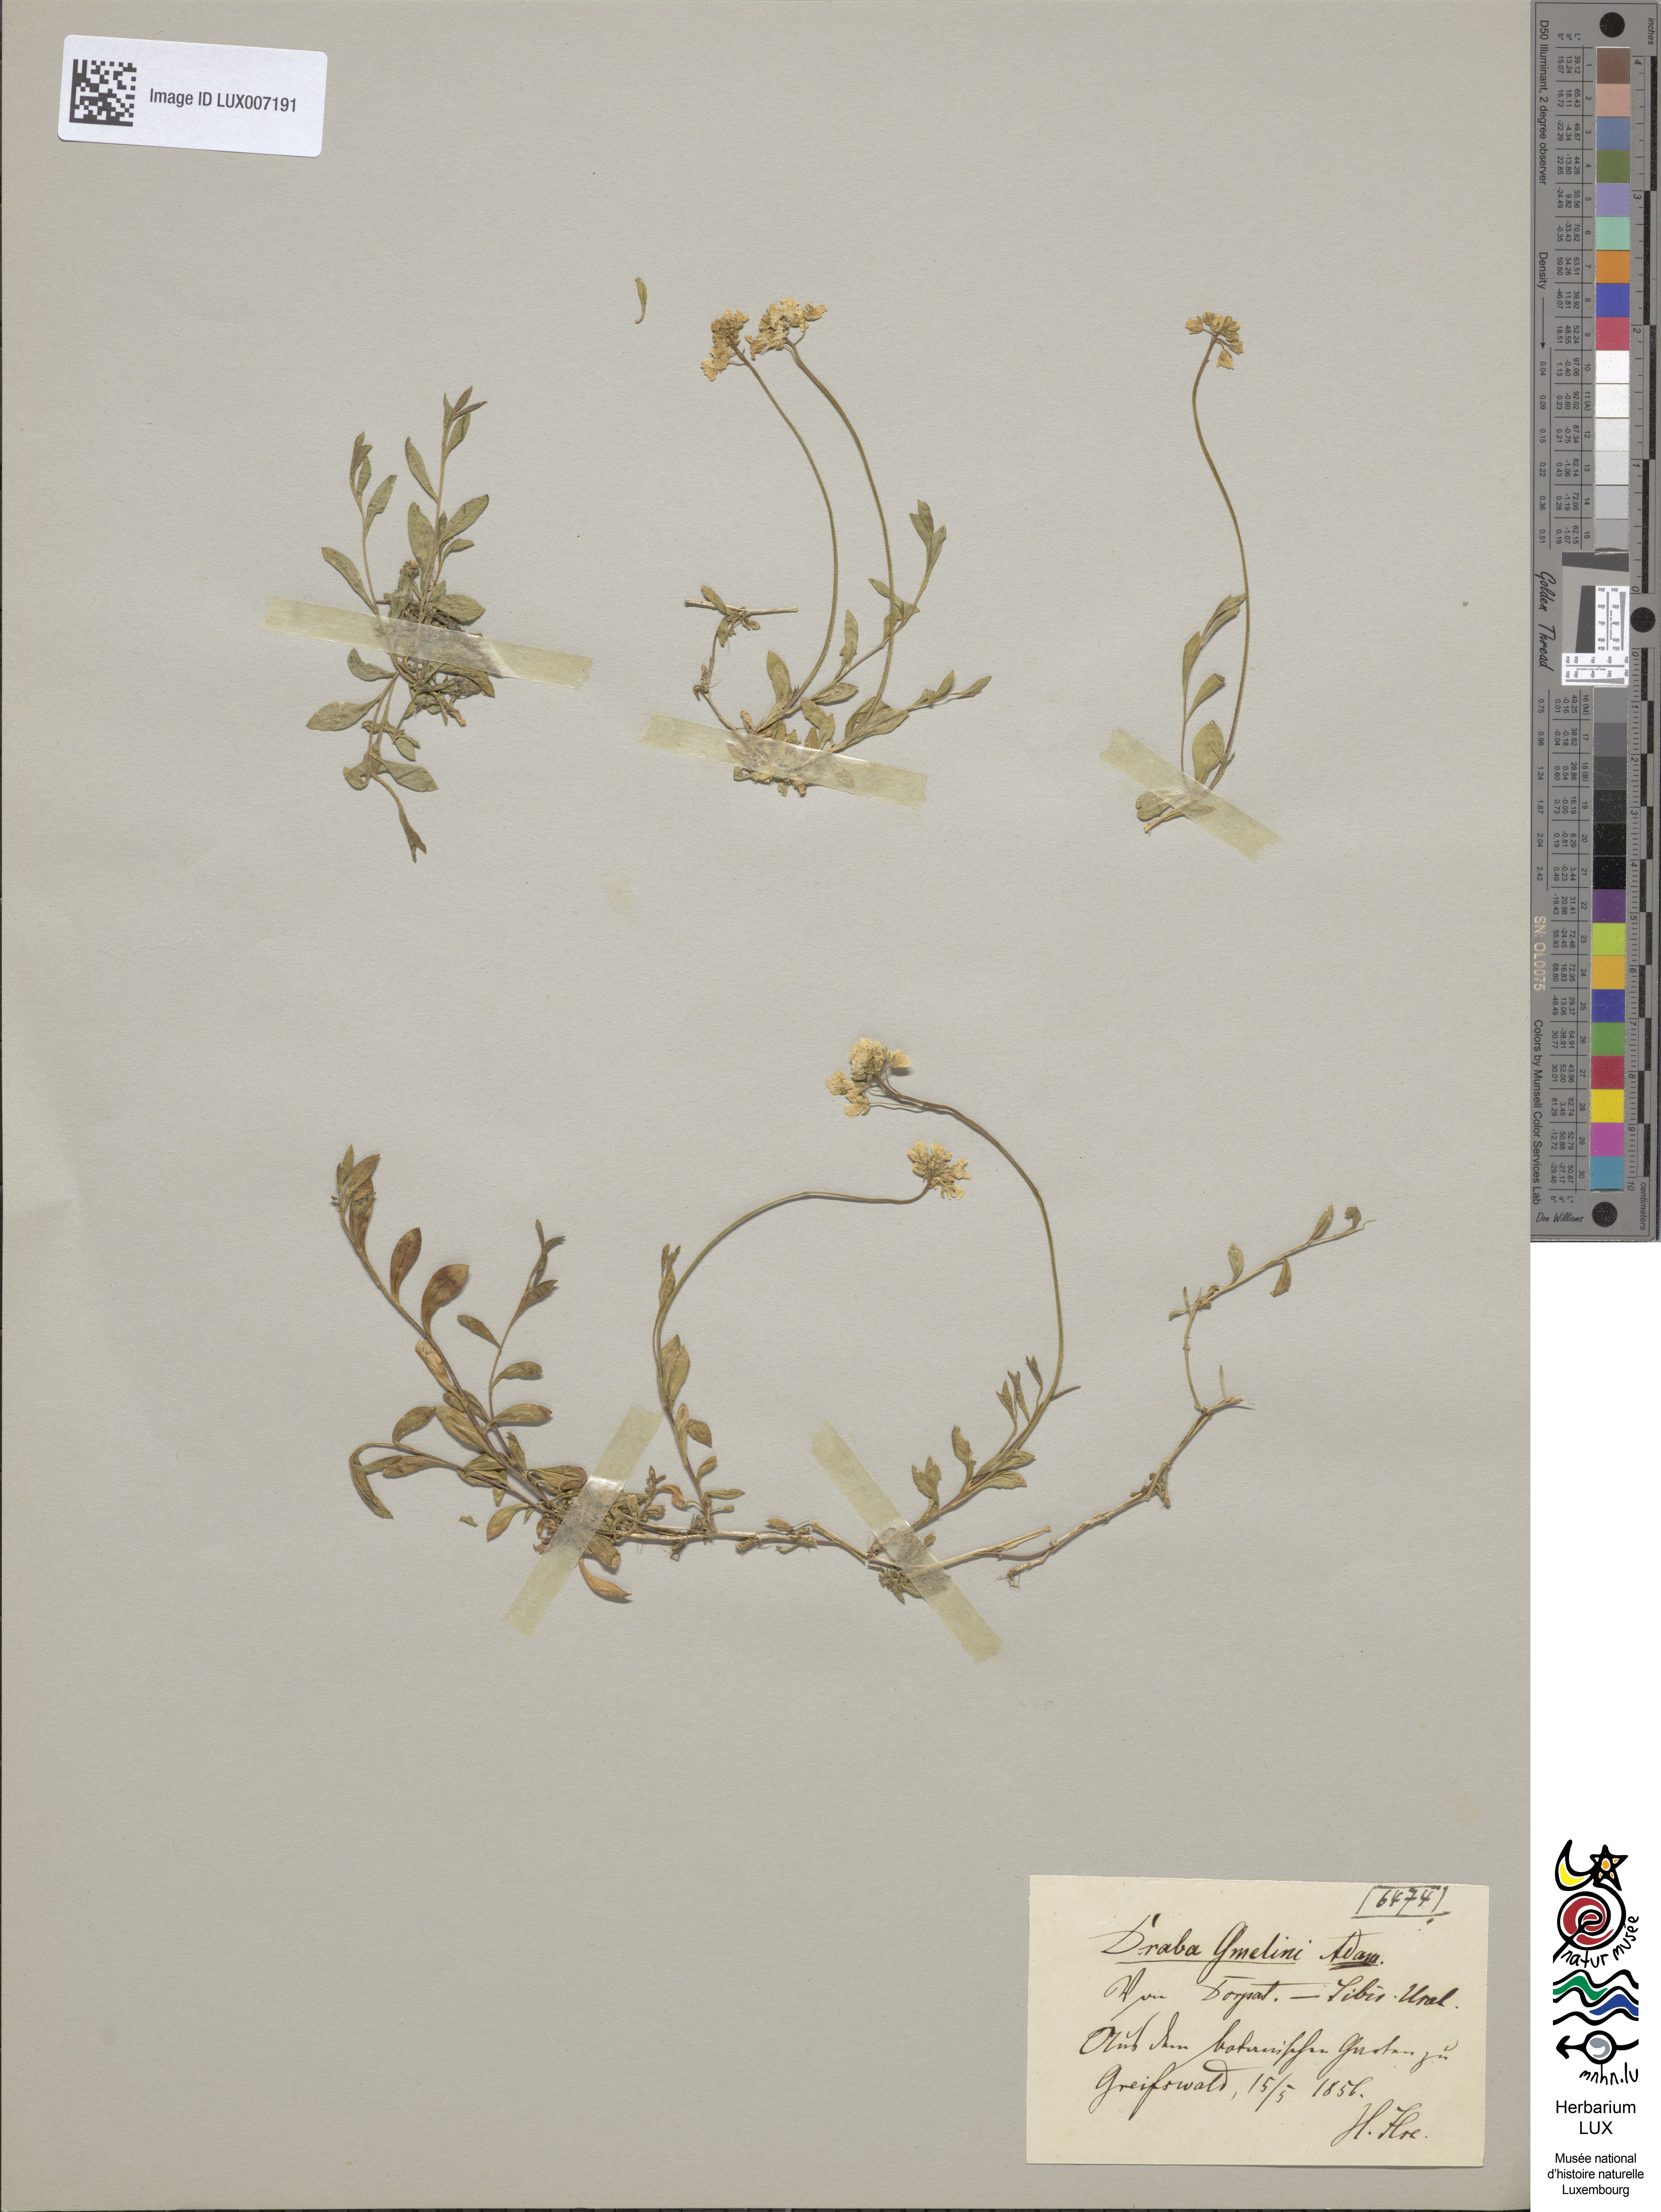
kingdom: Plantae
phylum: Tracheophyta
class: Magnoliopsida
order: Brassicales
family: Brassicaceae
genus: Draba
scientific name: Draba sibirica
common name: Siberian draba
